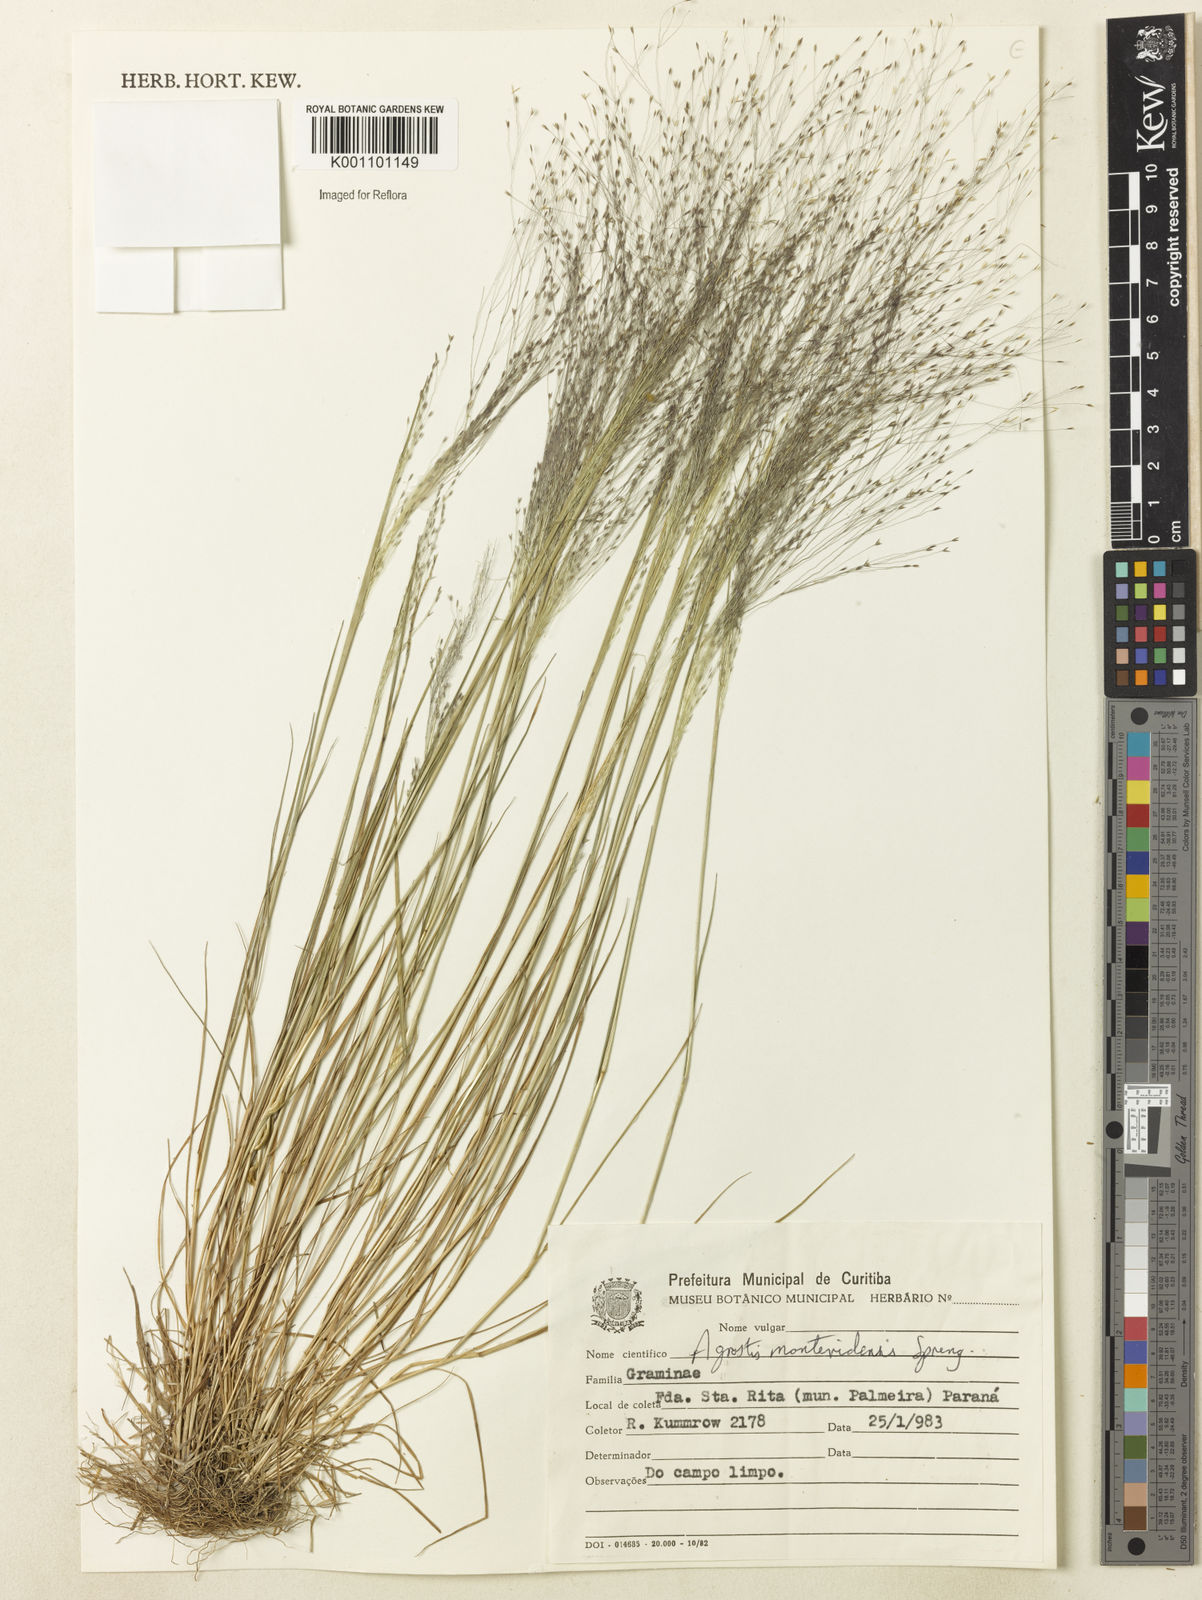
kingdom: Plantae
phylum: Tracheophyta
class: Liliopsida
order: Poales
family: Poaceae
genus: Agrostis
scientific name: Agrostis montevidensis
